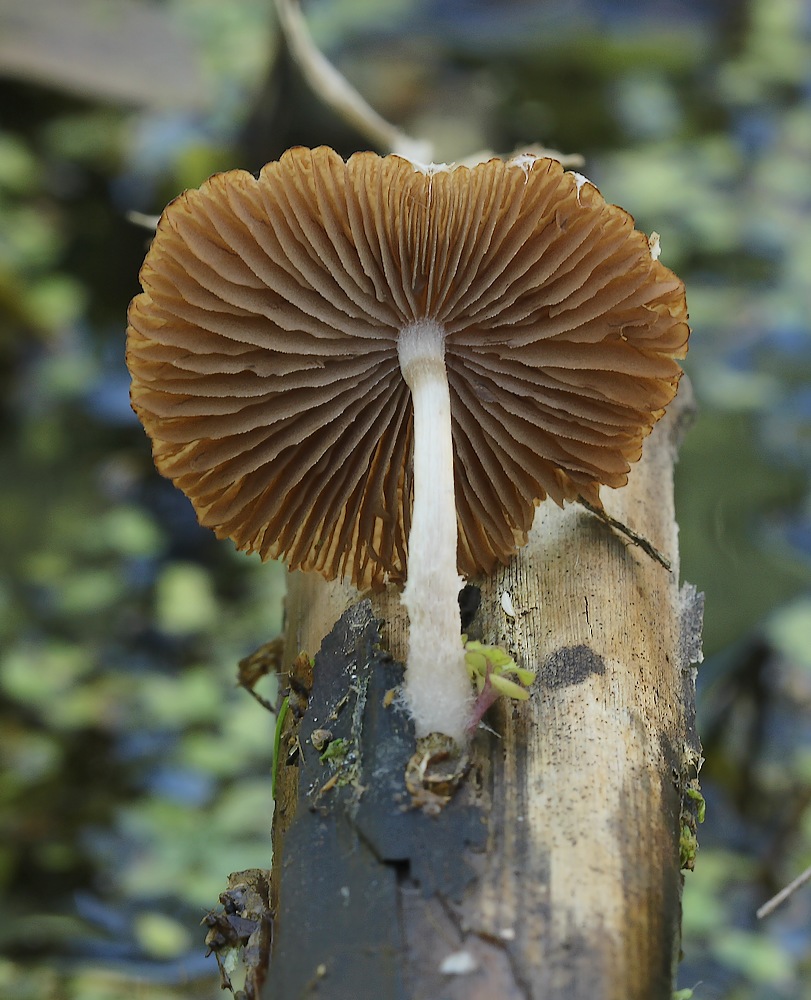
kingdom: Fungi
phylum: Basidiomycota
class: Agaricomycetes
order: Agaricales
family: Psathyrellaceae
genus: Candolleomyces
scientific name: Candolleomyces typhae
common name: dunhammer-mørkhat
